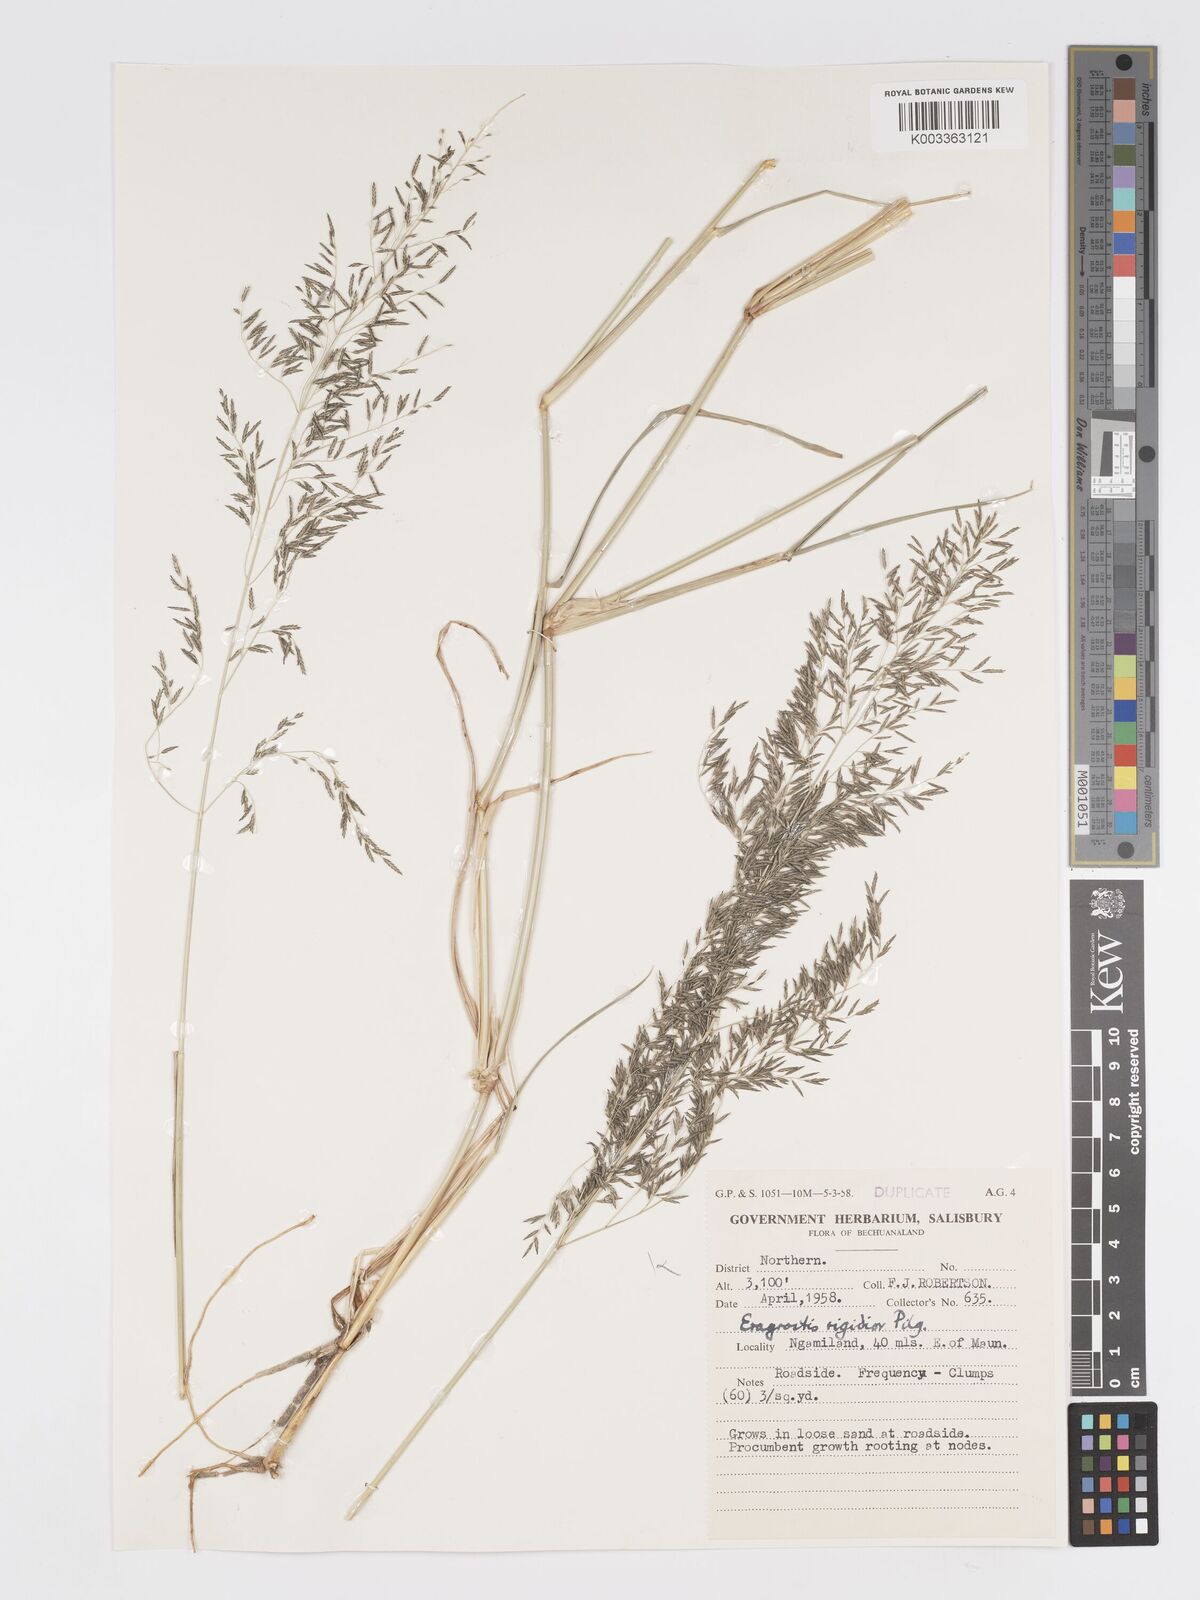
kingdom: Plantae
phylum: Tracheophyta
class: Liliopsida
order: Poales
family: Poaceae
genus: Eragrostis
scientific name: Eragrostis cylindriflora
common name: Cylinderflower lovegrass
